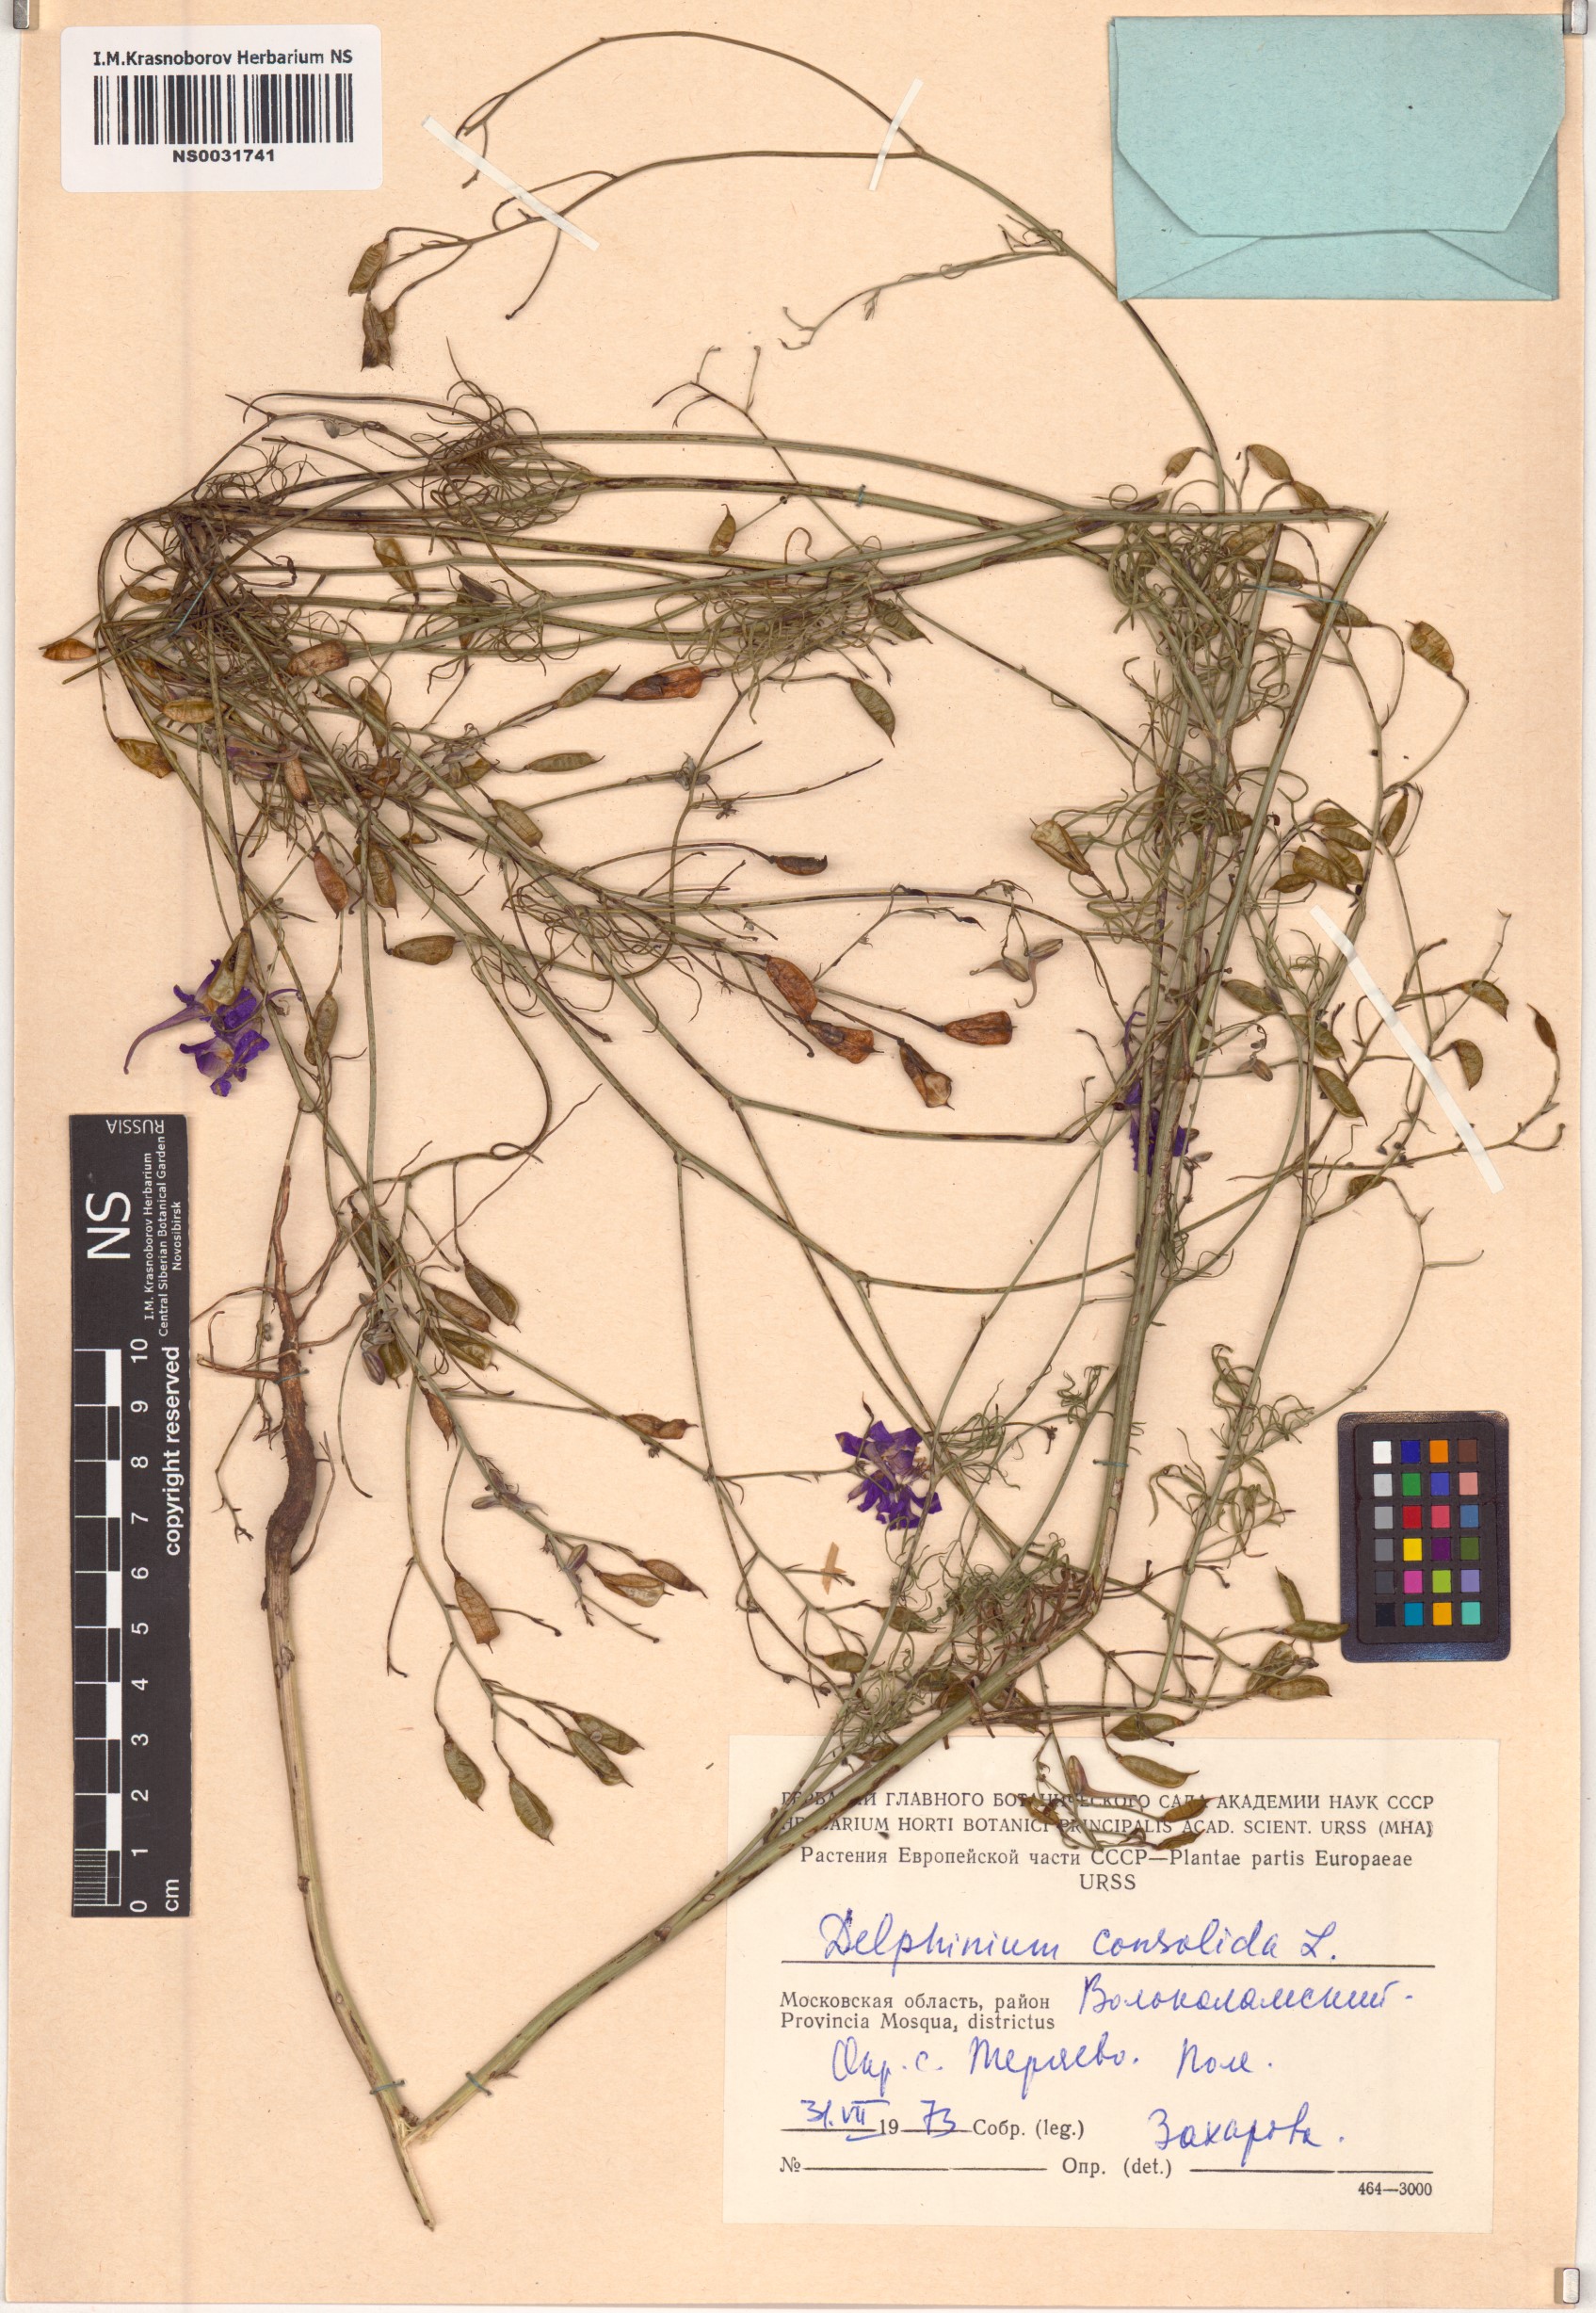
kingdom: Plantae
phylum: Tracheophyta
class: Magnoliopsida
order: Ranunculales
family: Ranunculaceae
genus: Delphinium
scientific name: Delphinium consolida
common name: Branching larkspur
